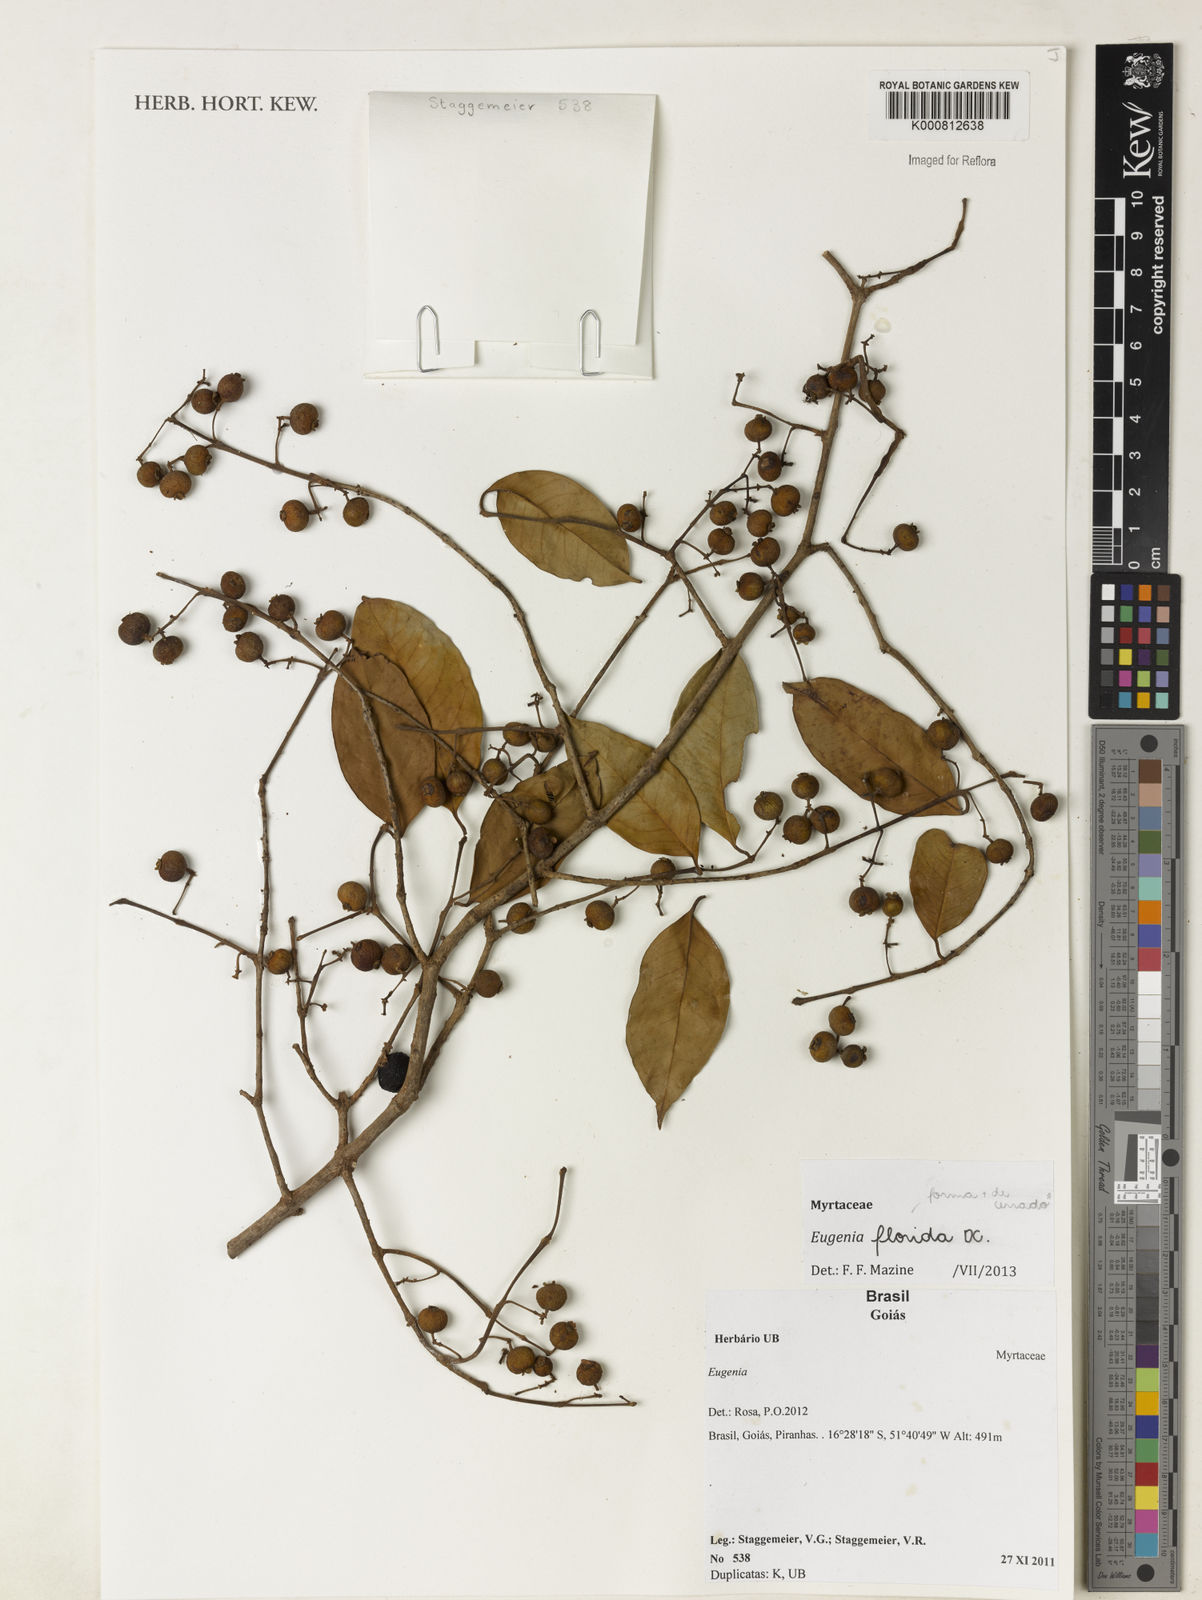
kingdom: Plantae
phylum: Tracheophyta
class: Magnoliopsida
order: Myrtales
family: Myrtaceae
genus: Eugenia
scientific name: Eugenia florida
